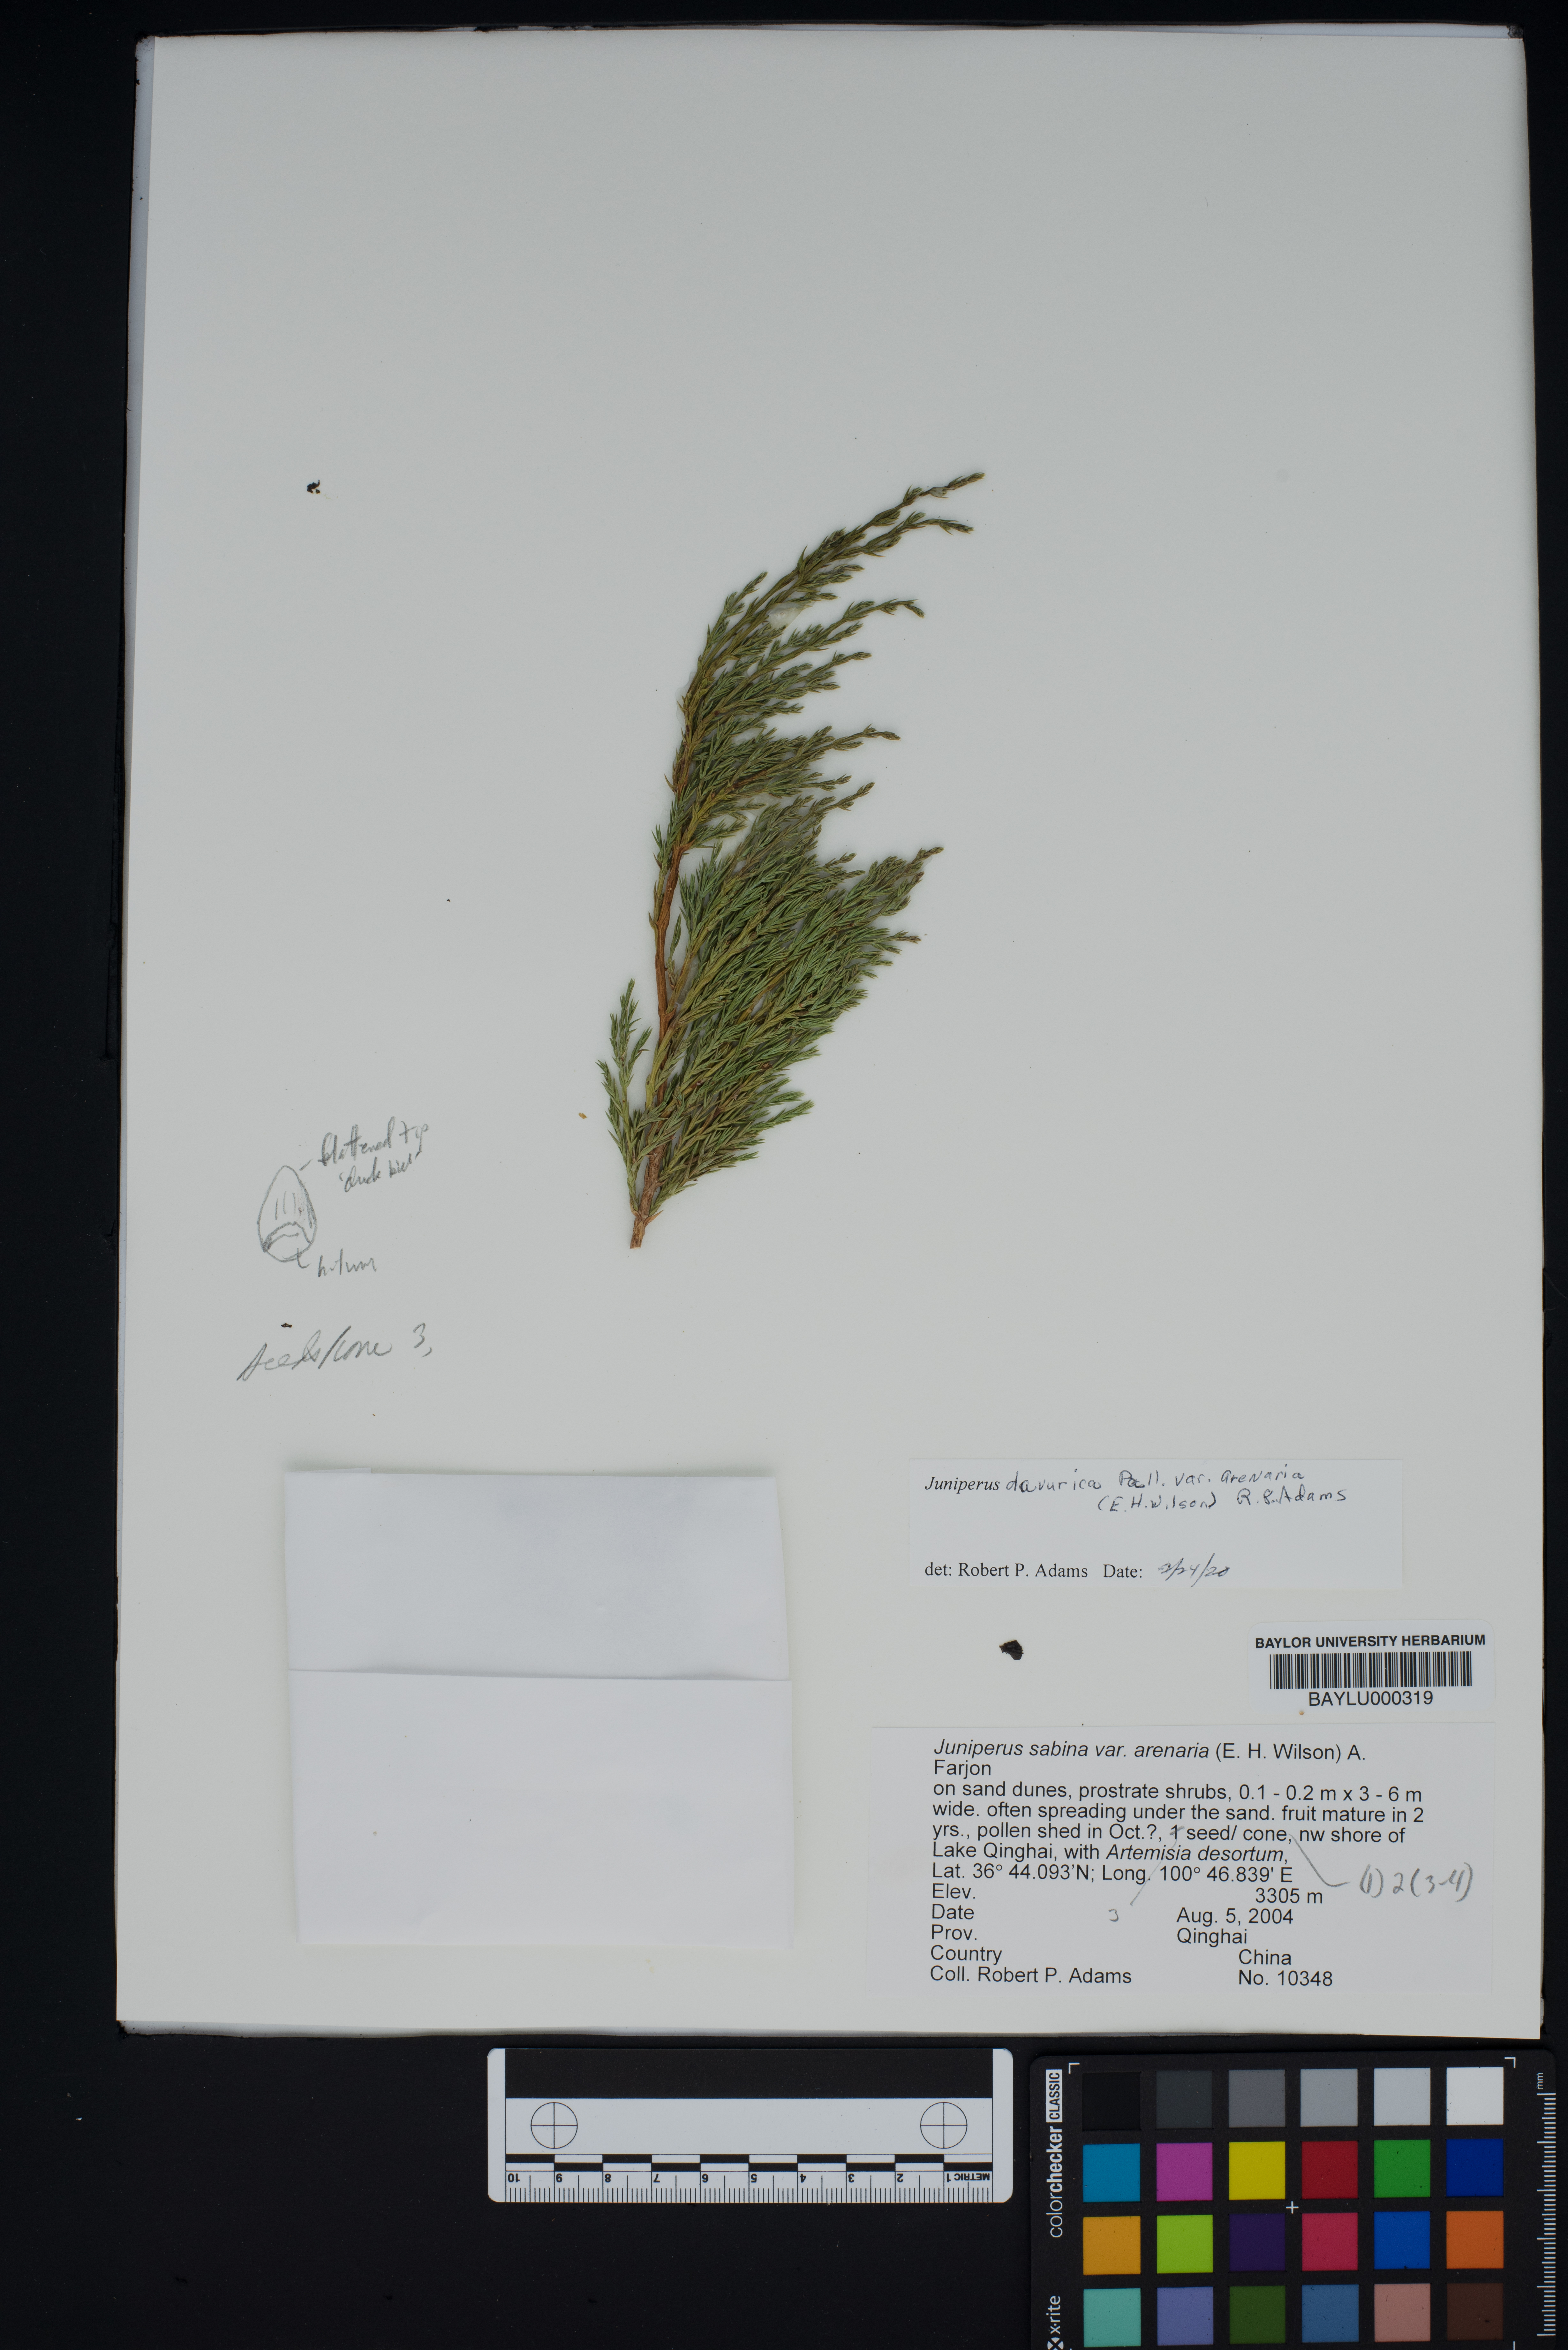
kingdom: Plantae
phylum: Tracheophyta
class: Pinopsida
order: Pinales
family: Cupressaceae
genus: Juniperus
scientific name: Juniperus sabina
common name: Savin
